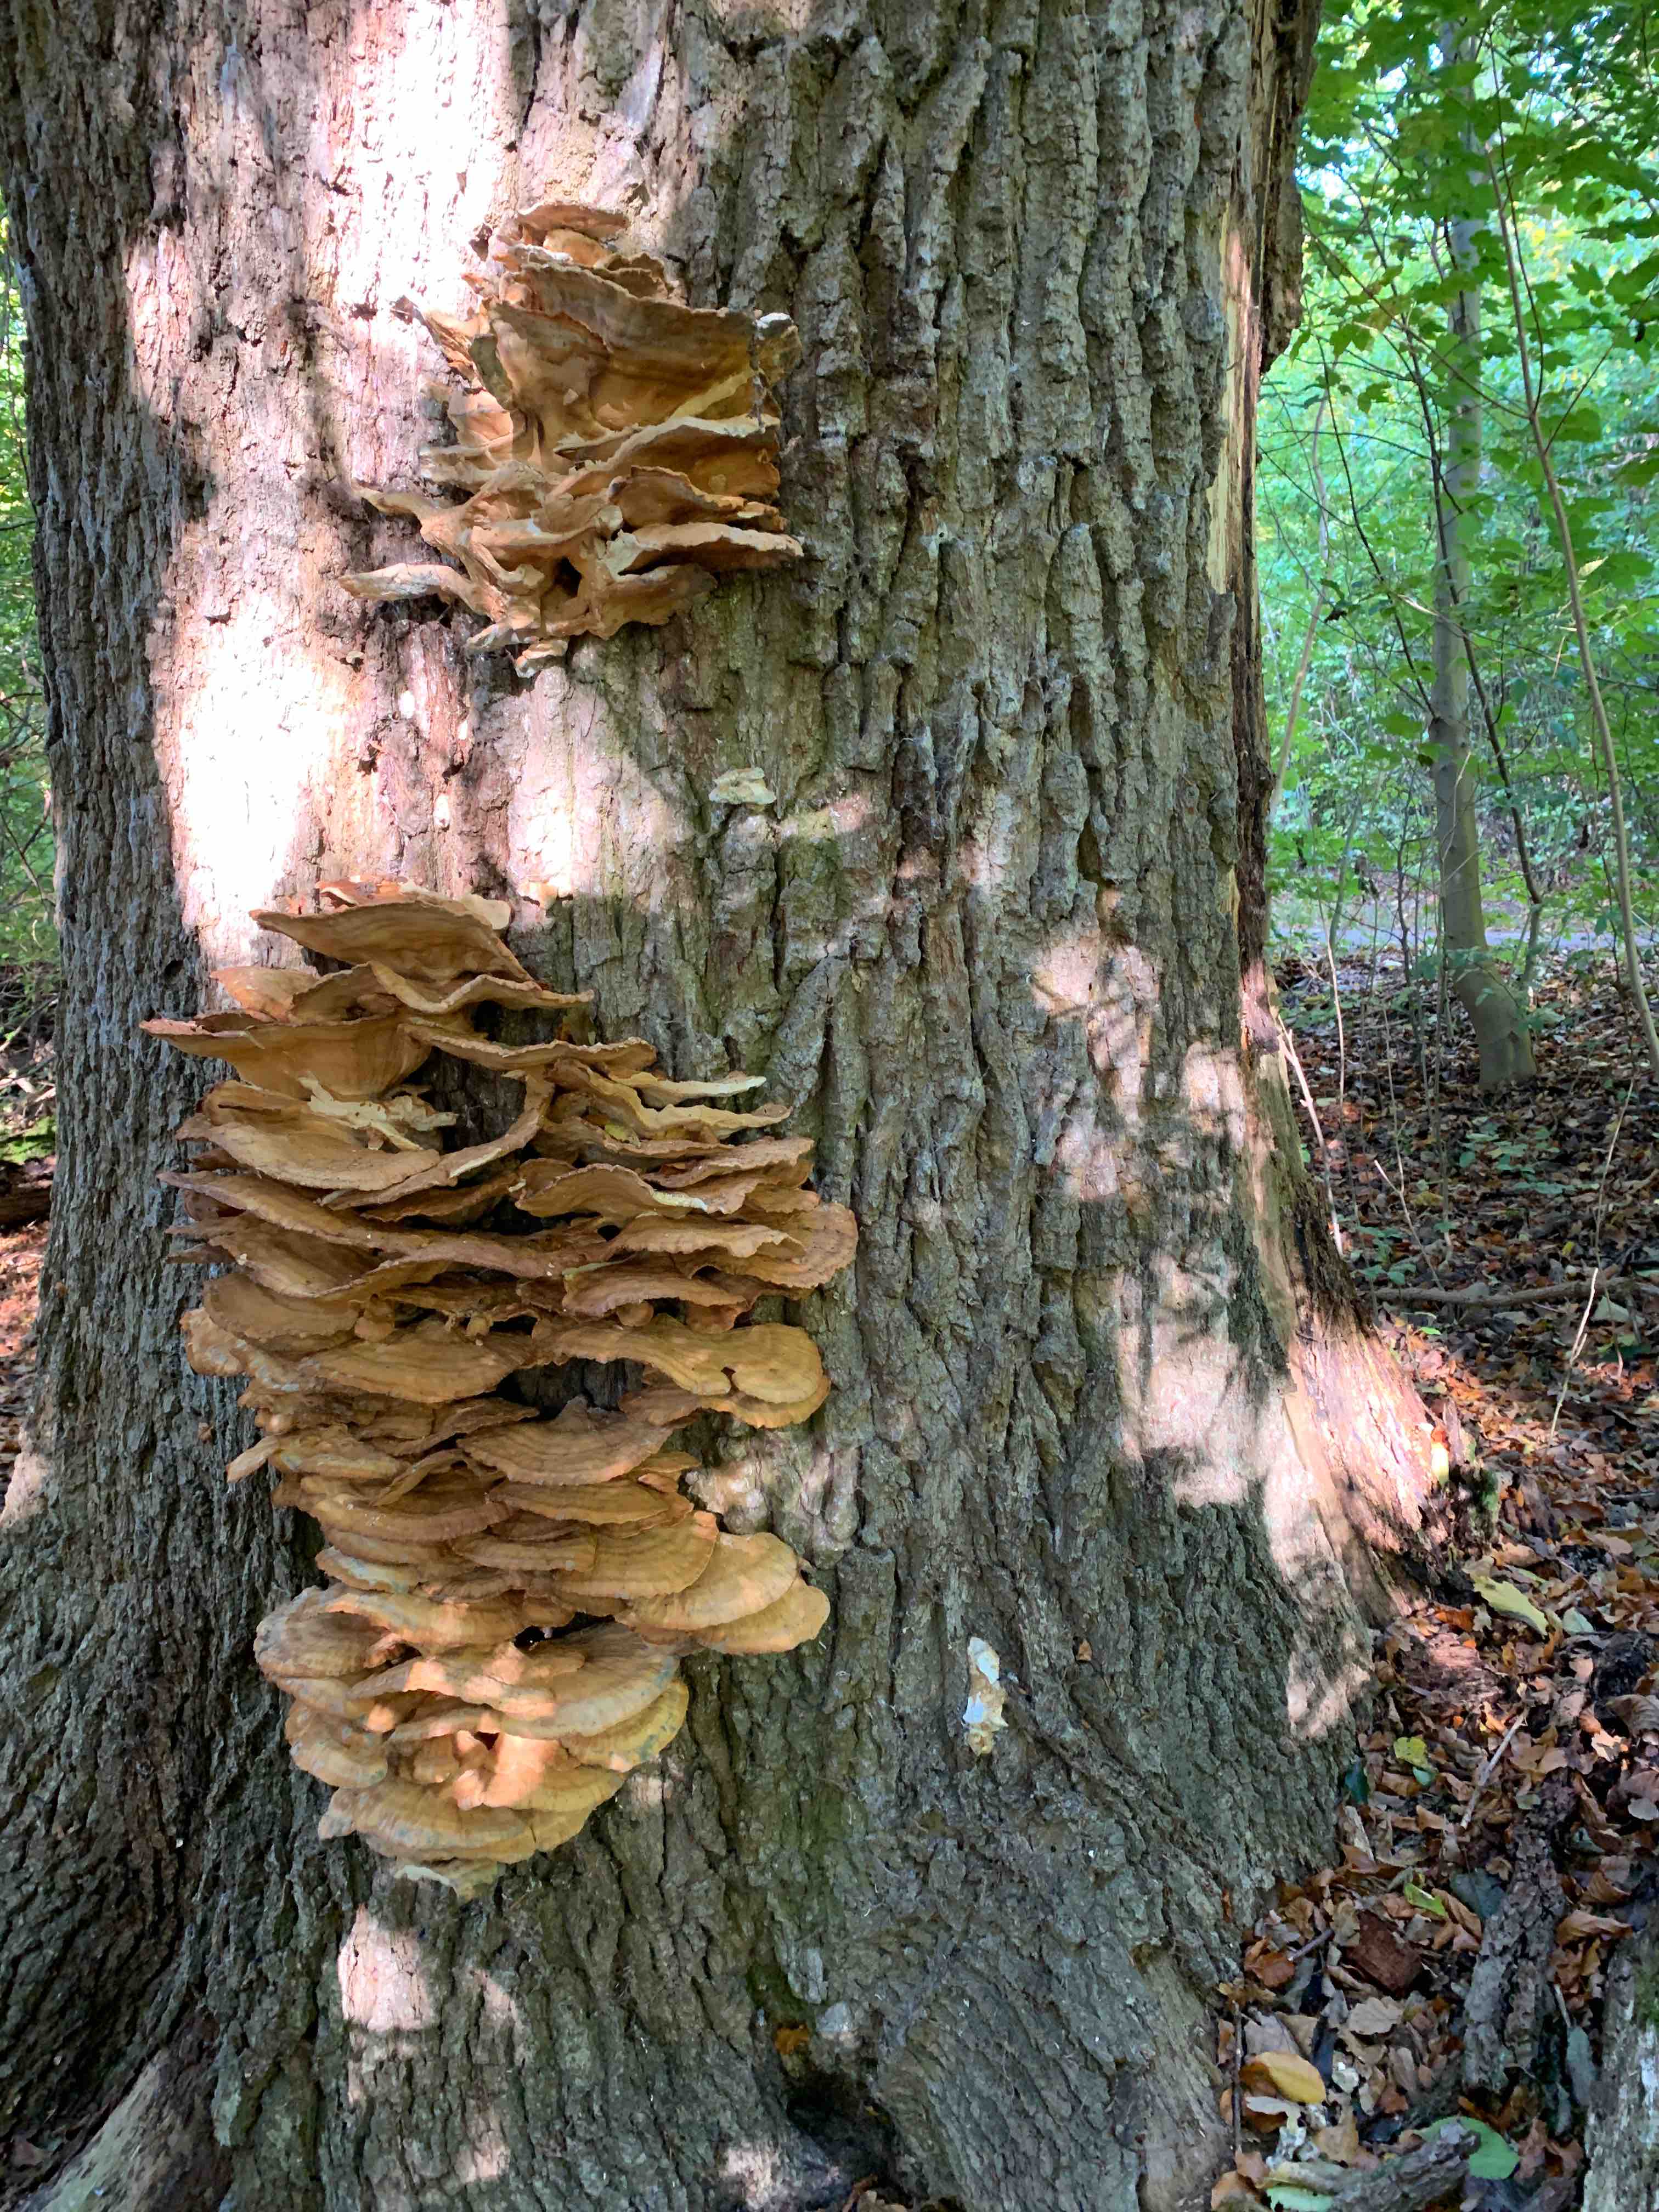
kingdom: Fungi
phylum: Basidiomycota
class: Agaricomycetes
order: Polyporales
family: Laetiporaceae
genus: Laetiporus
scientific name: Laetiporus sulphureus
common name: svovlporesvamp
